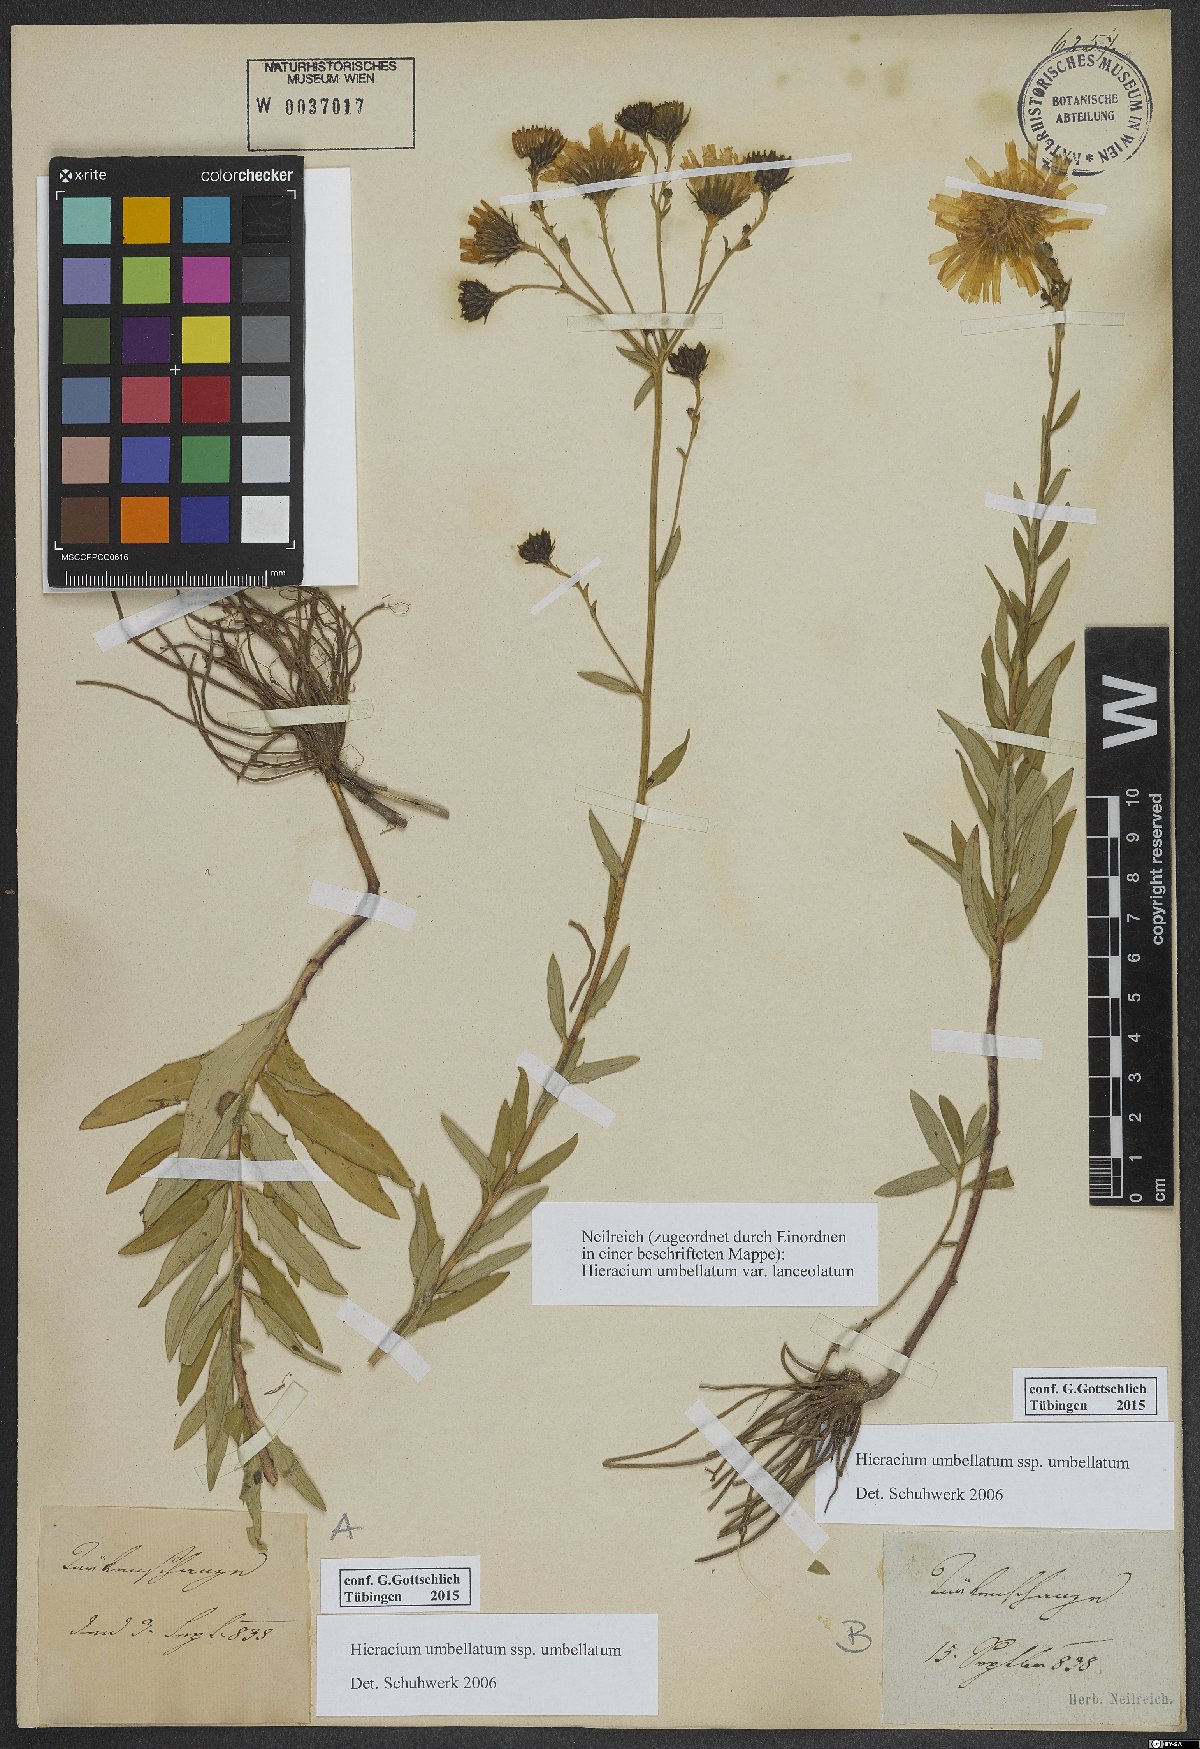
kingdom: Plantae
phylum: Tracheophyta
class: Magnoliopsida
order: Asterales
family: Asteraceae
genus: Hieracium
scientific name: Hieracium umbellatum
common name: Northern hawkweed
